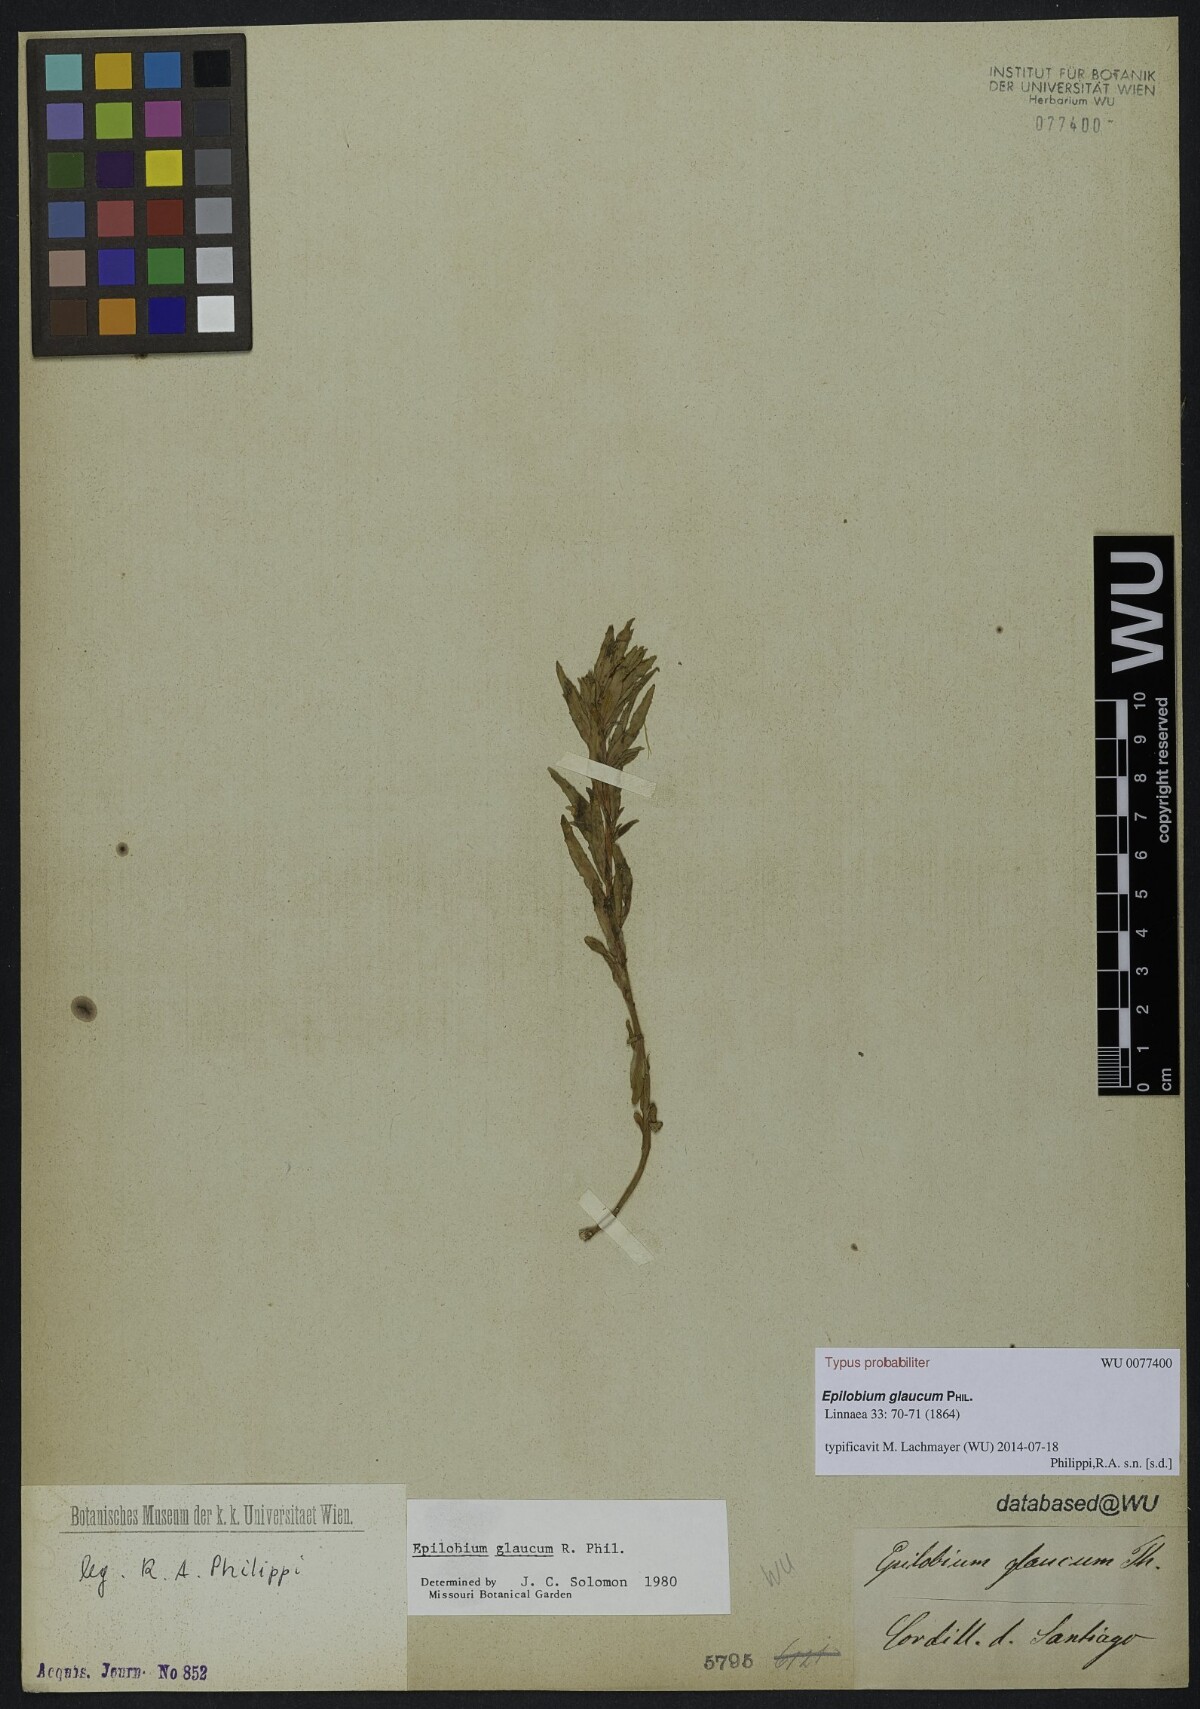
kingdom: Plantae
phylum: Tracheophyta
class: Magnoliopsida
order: Myrtales
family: Onagraceae
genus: Epilobium
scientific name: Epilobium glaucum
